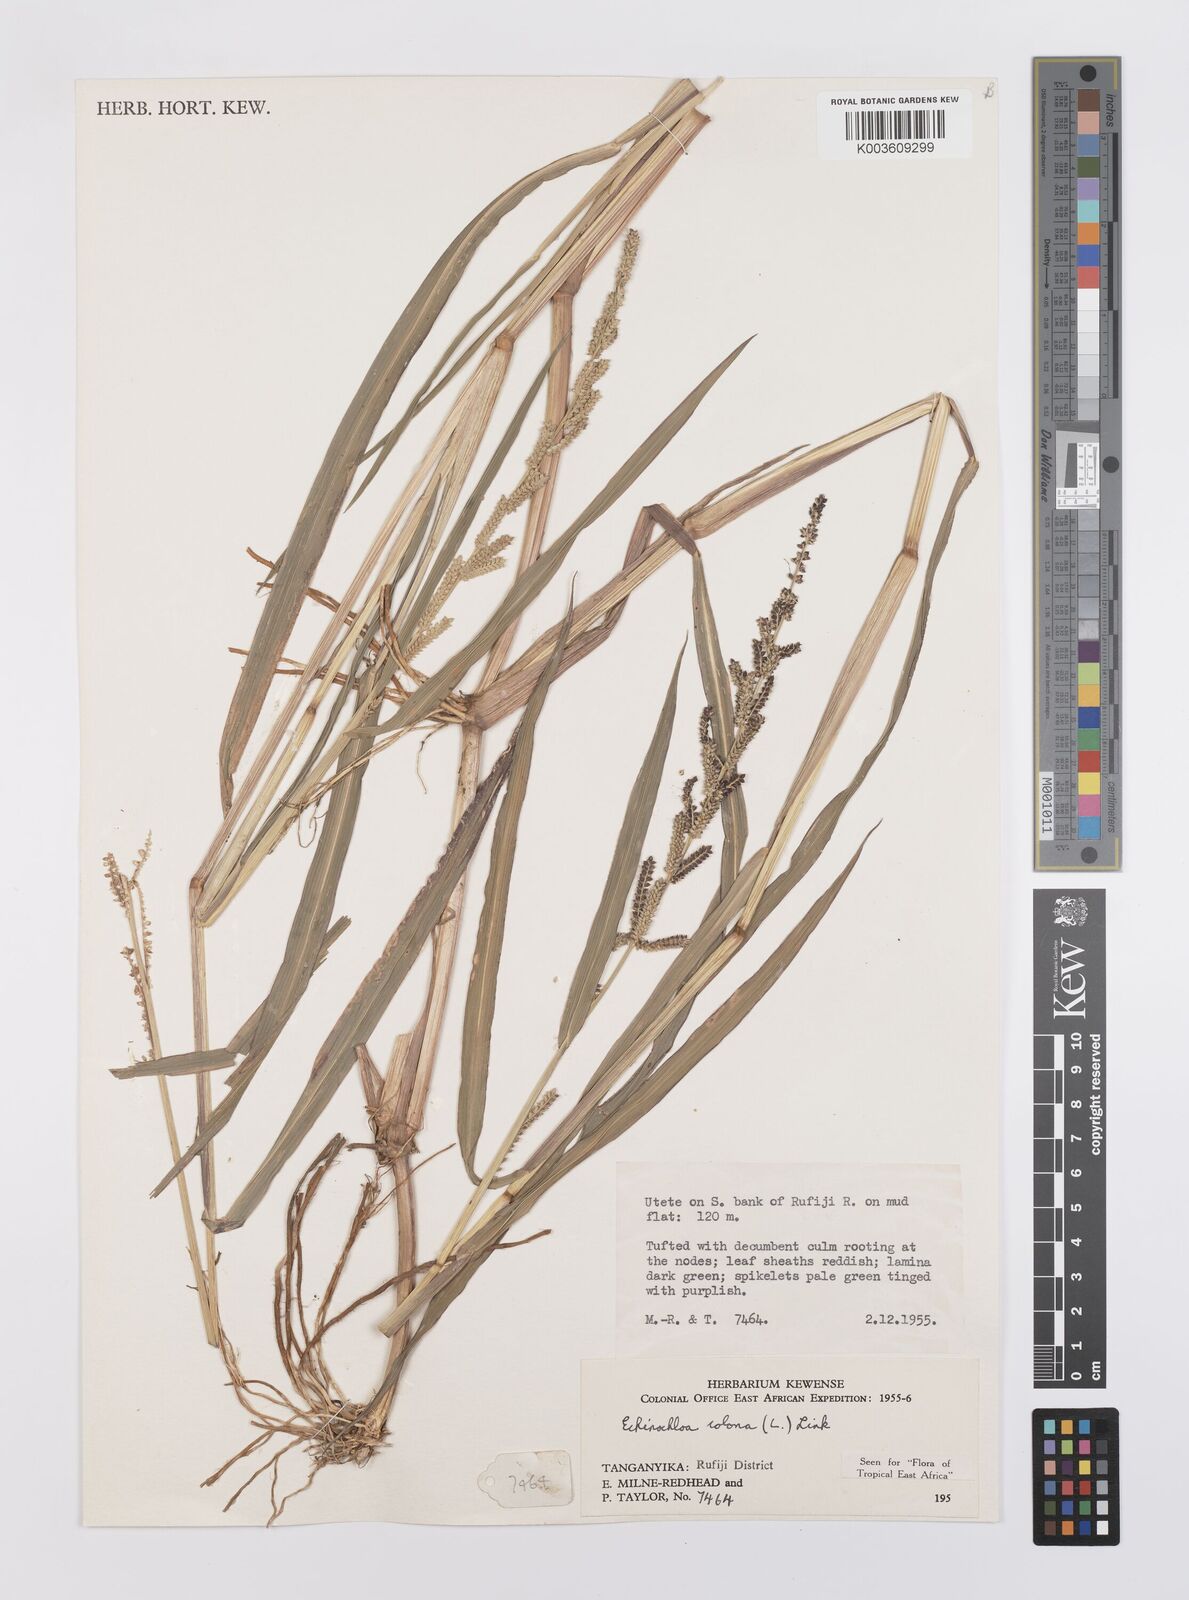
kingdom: Plantae
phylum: Tracheophyta
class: Liliopsida
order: Poales
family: Poaceae
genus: Echinochloa
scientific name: Echinochloa colonum
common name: Jungle rice
